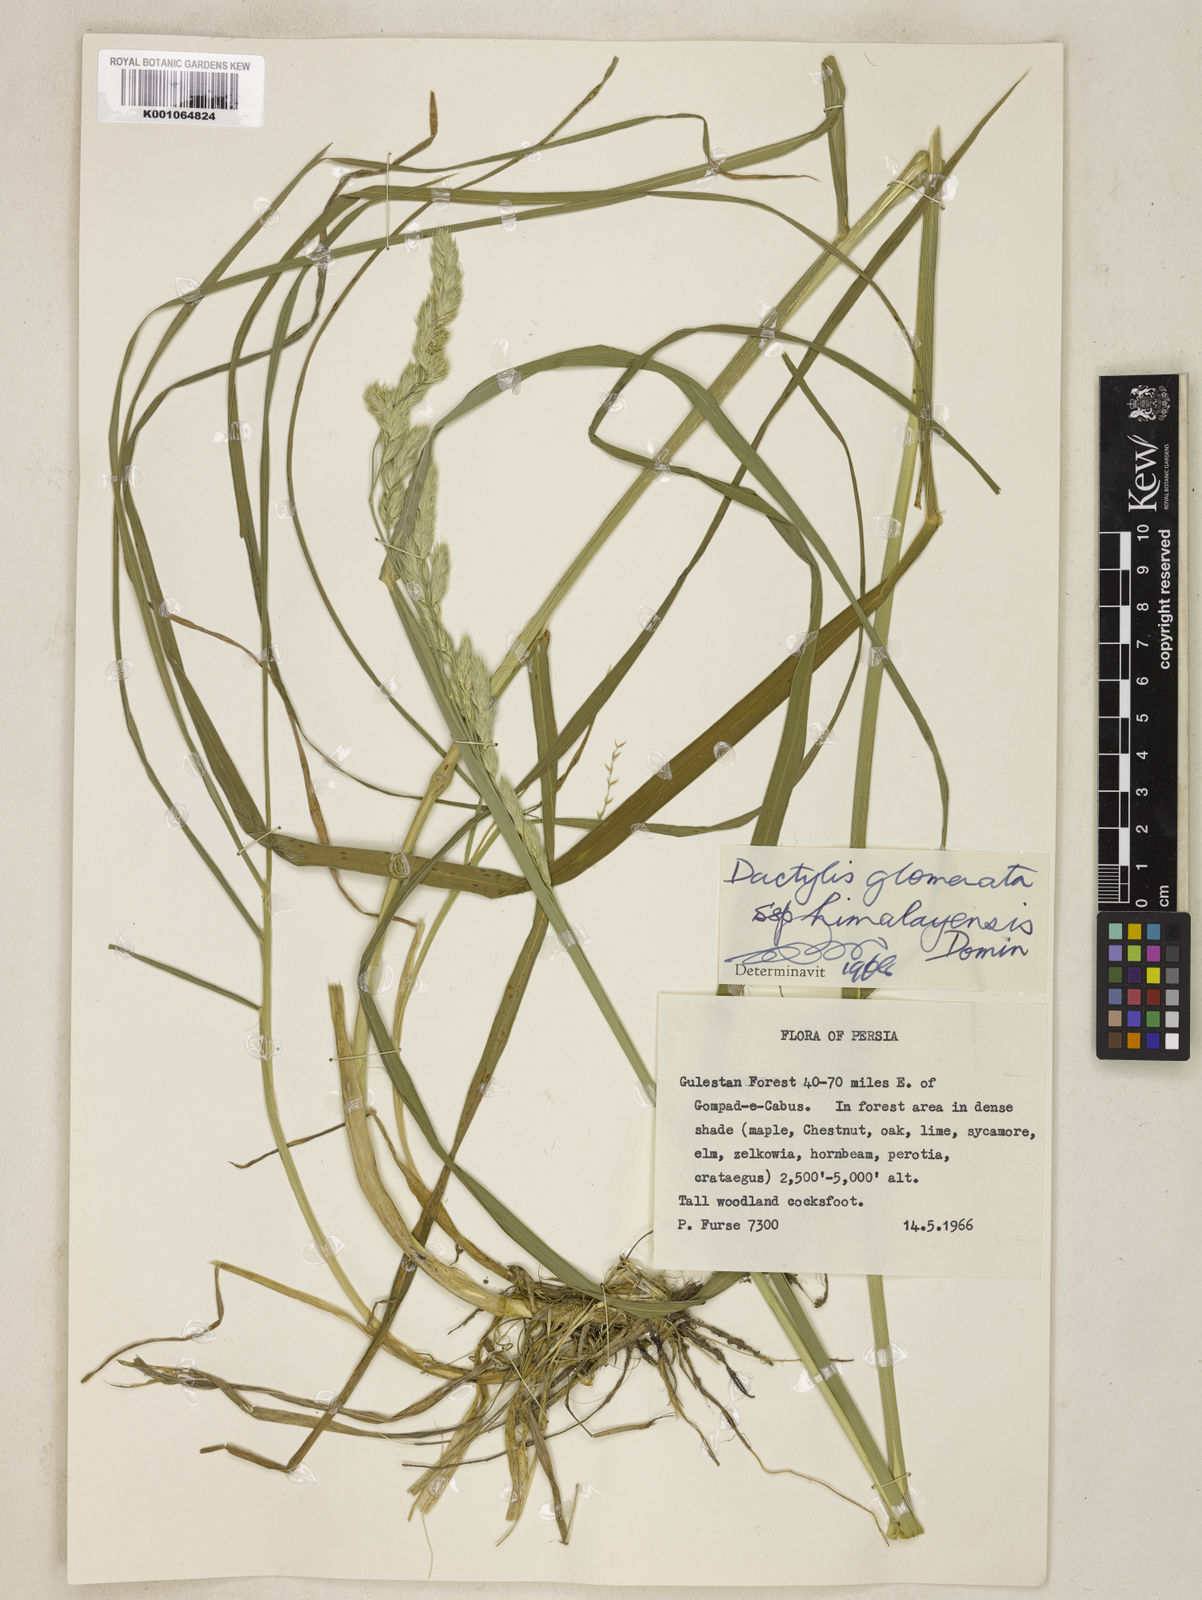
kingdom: Plantae
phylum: Tracheophyta
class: Liliopsida
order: Poales
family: Poaceae
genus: Dactylis
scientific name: Dactylis glomerata
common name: Orchardgrass
